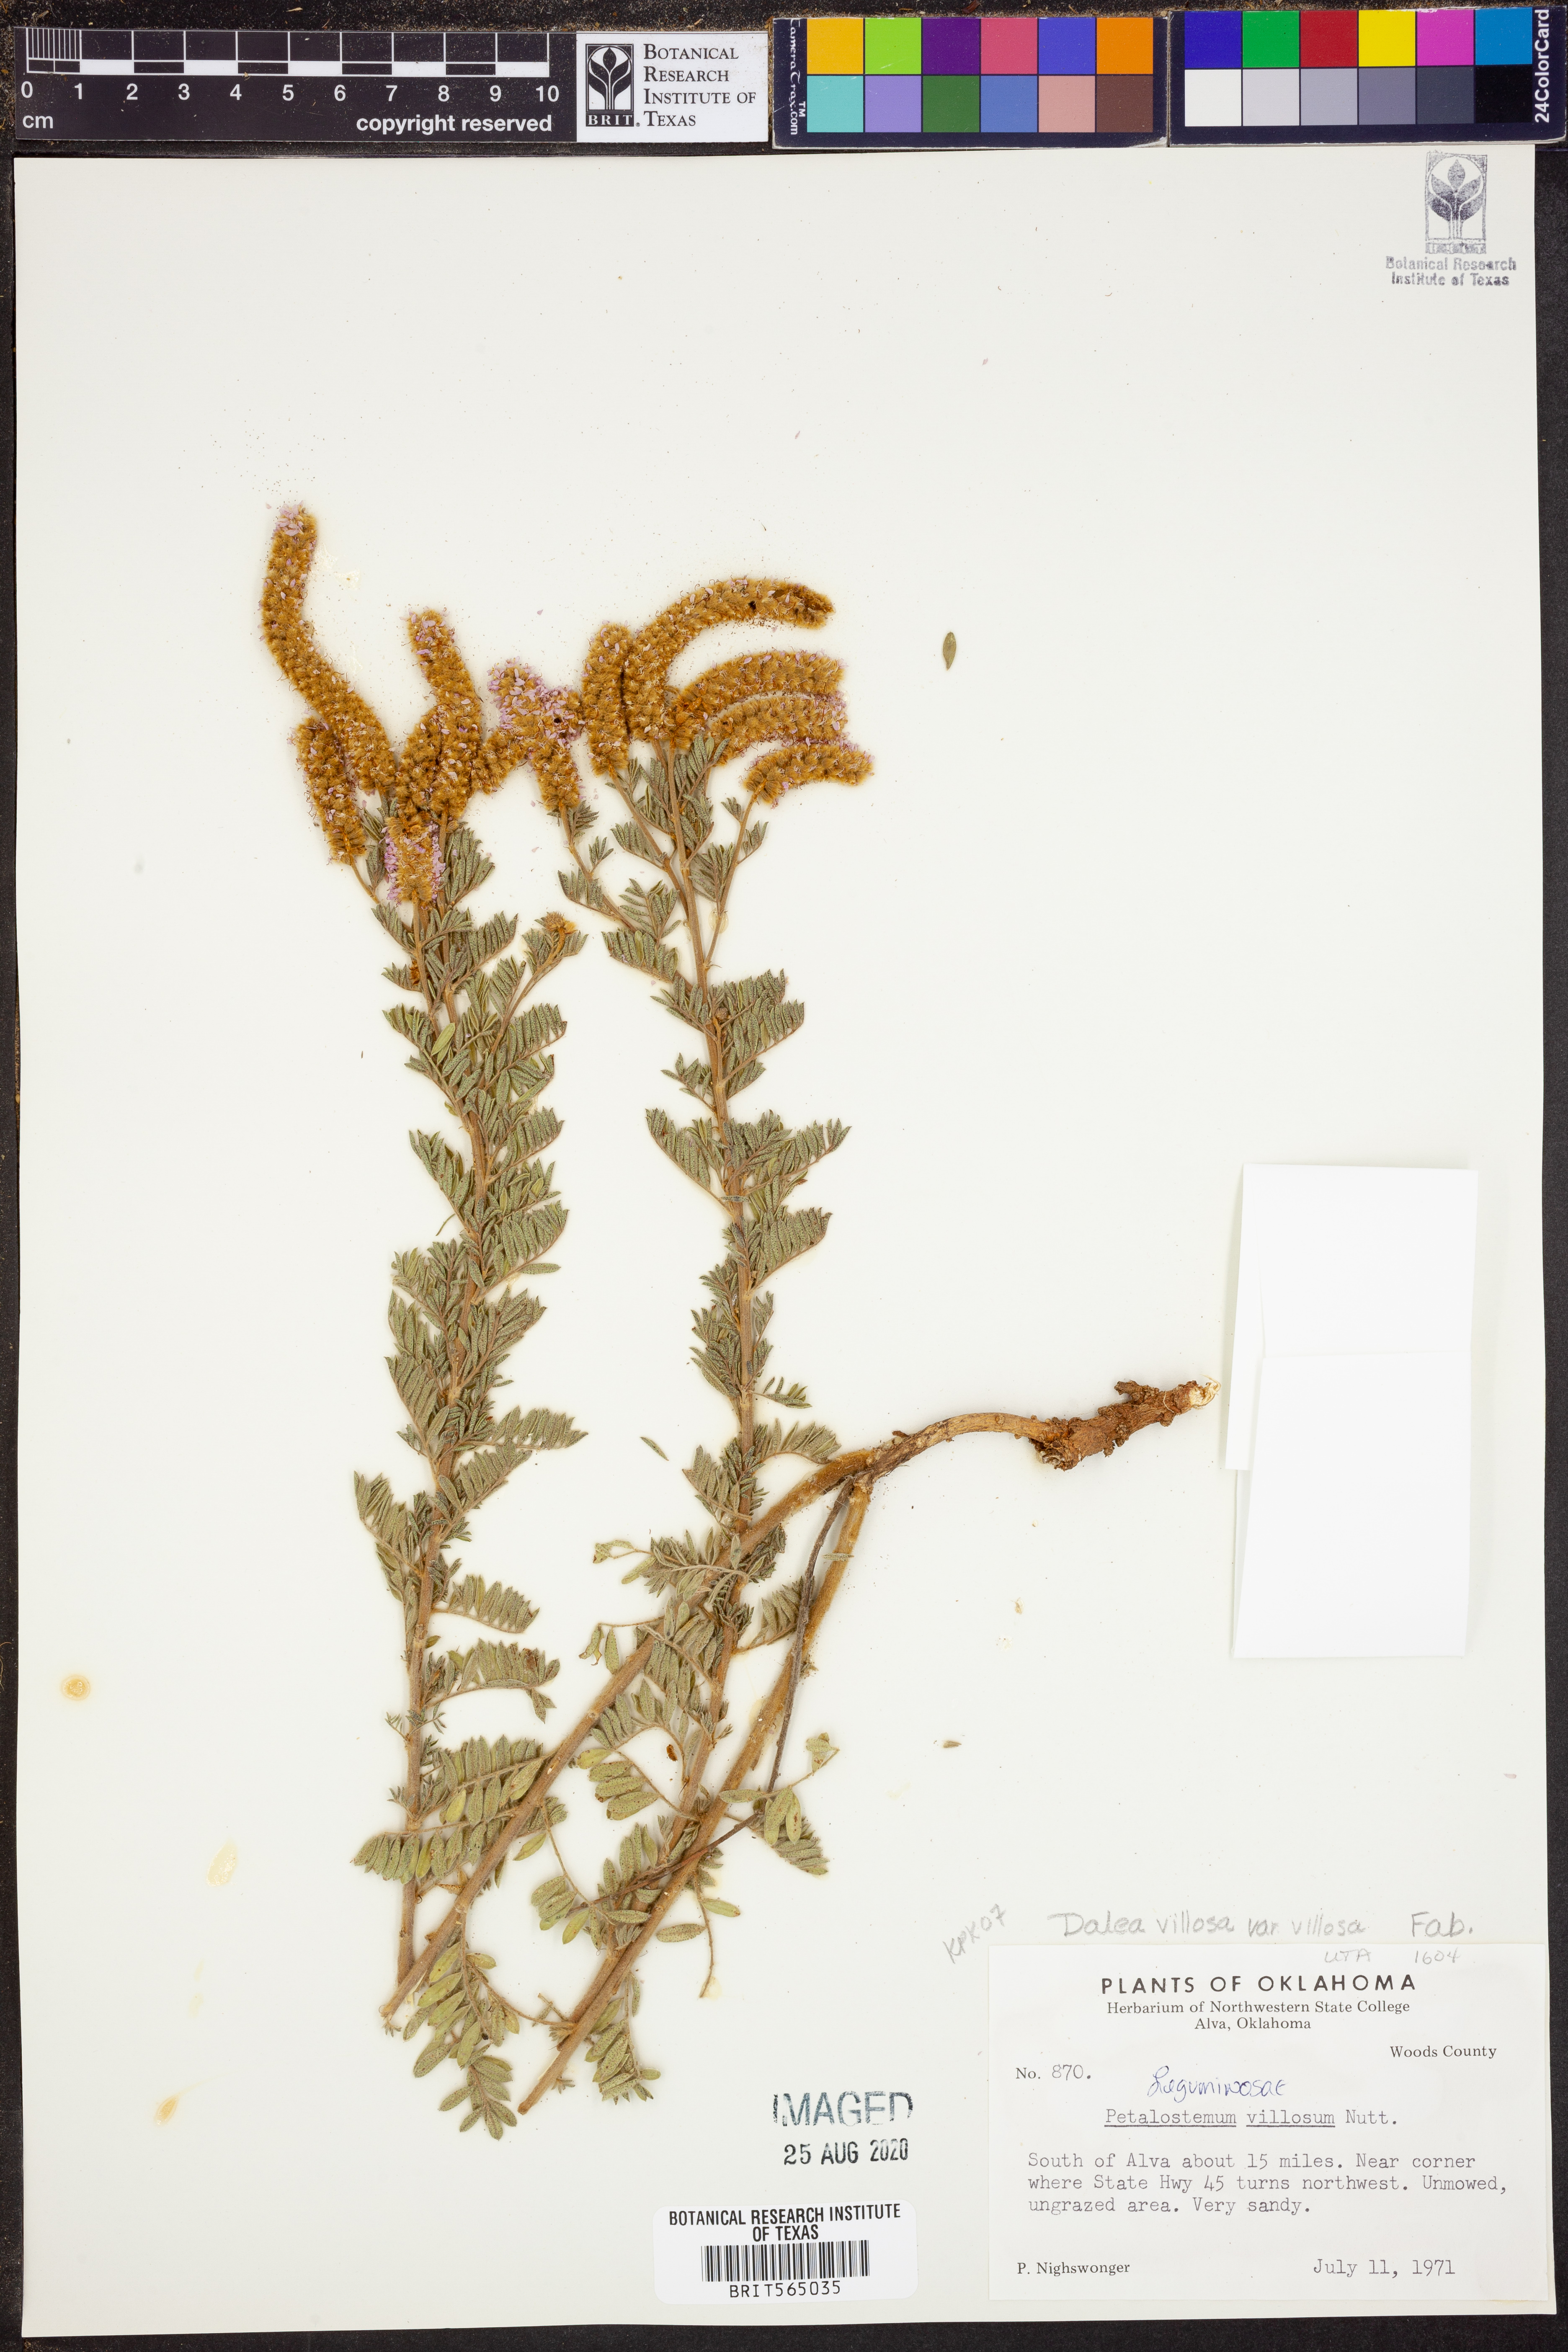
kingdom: Plantae
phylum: Tracheophyta
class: Magnoliopsida
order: Fabales
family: Fabaceae
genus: Dalea
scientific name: Dalea villosa
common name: Silky prairie-clover
